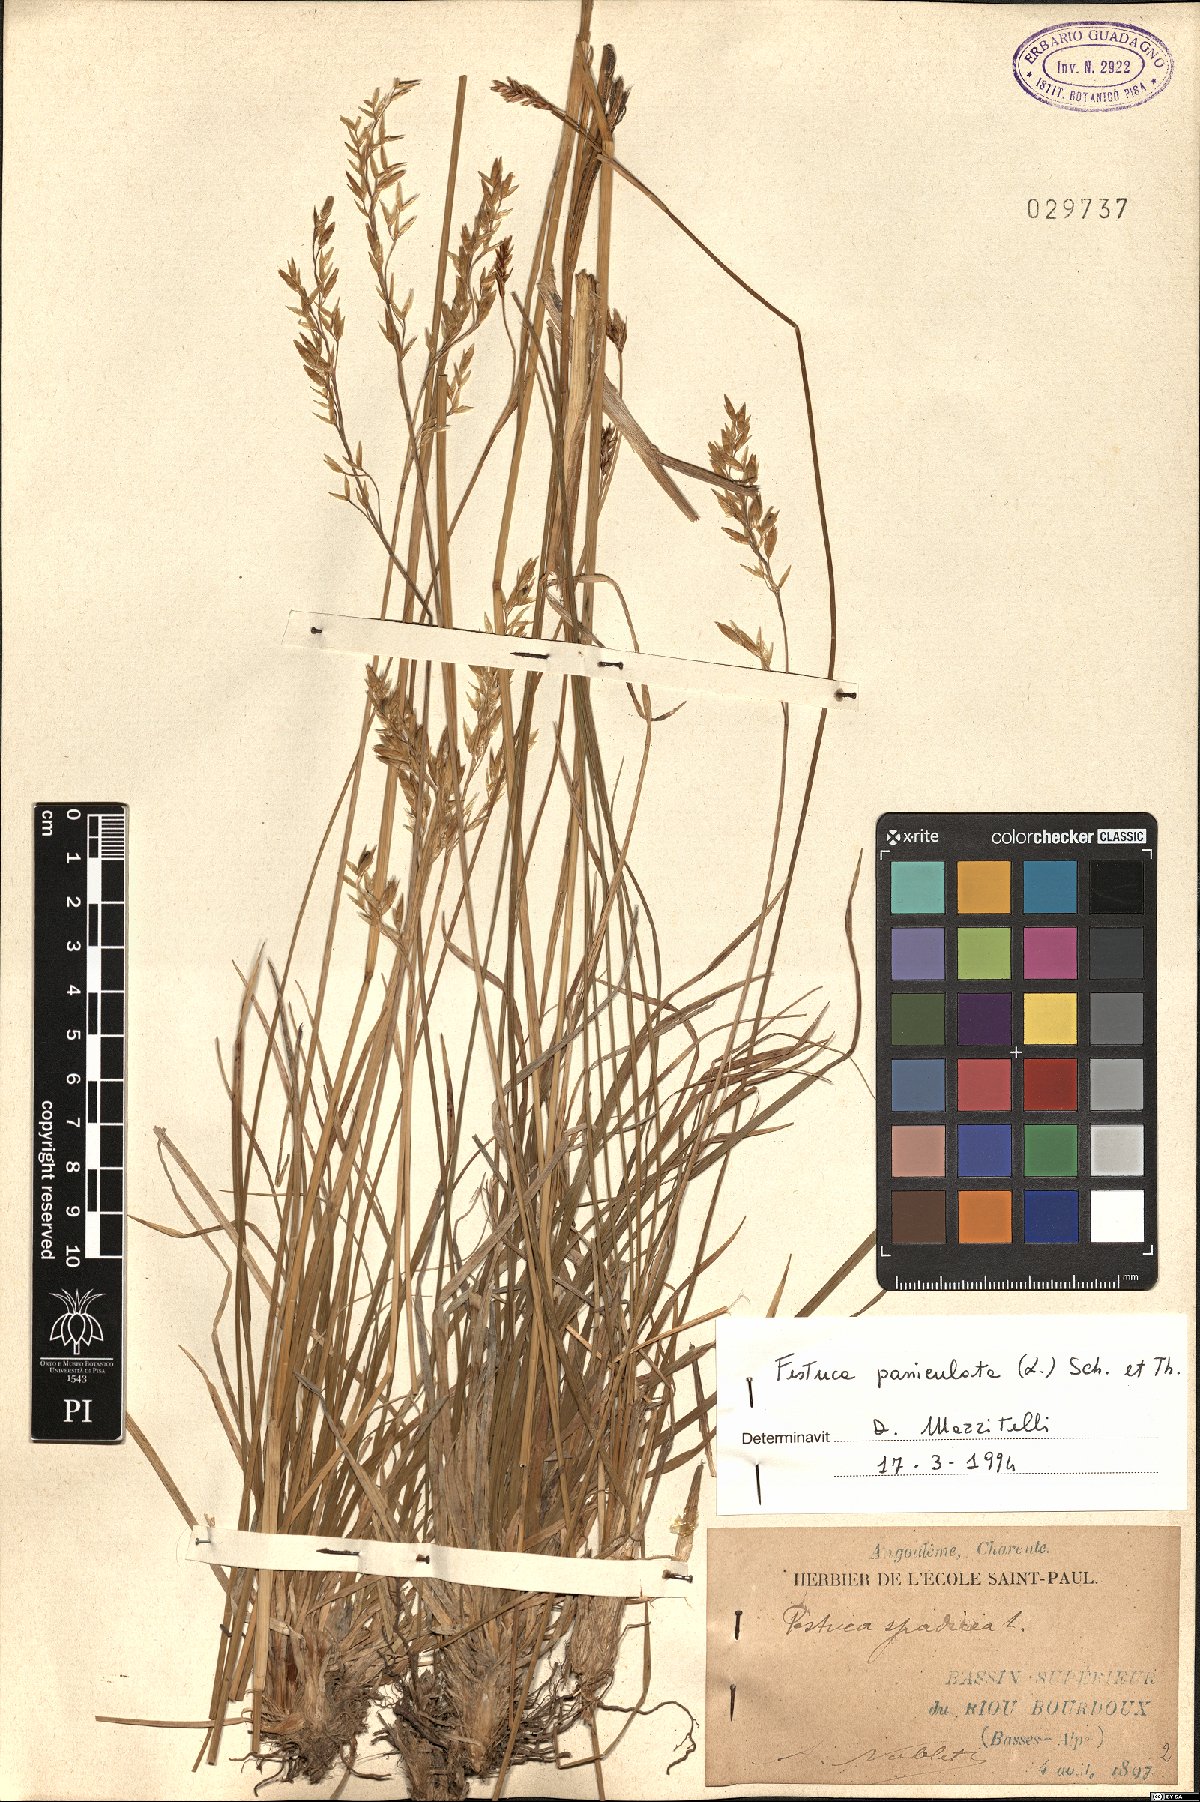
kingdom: Plantae
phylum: Tracheophyta
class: Liliopsida
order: Poales
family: Poaceae
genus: Patzkea
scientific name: Patzkea paniculata
